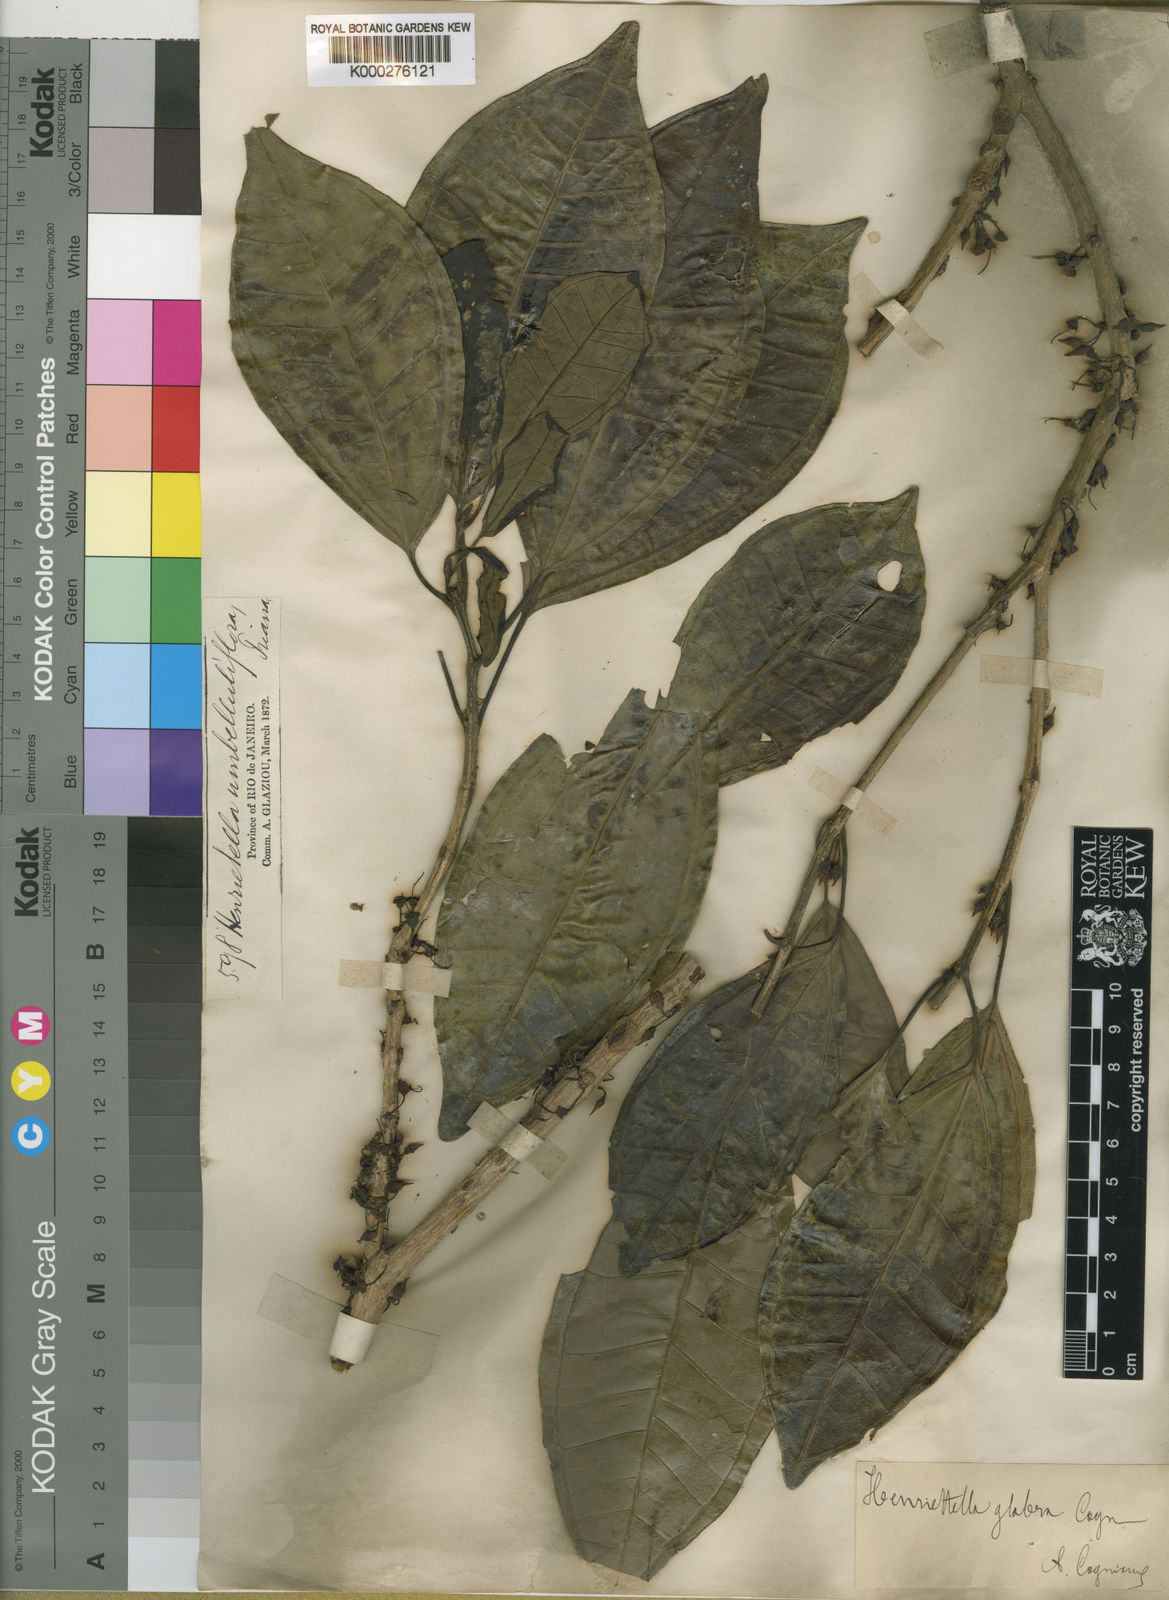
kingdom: Plantae
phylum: Tracheophyta
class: Magnoliopsida
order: Myrtales
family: Melastomataceae
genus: Henriettea
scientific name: Henriettea glabra
